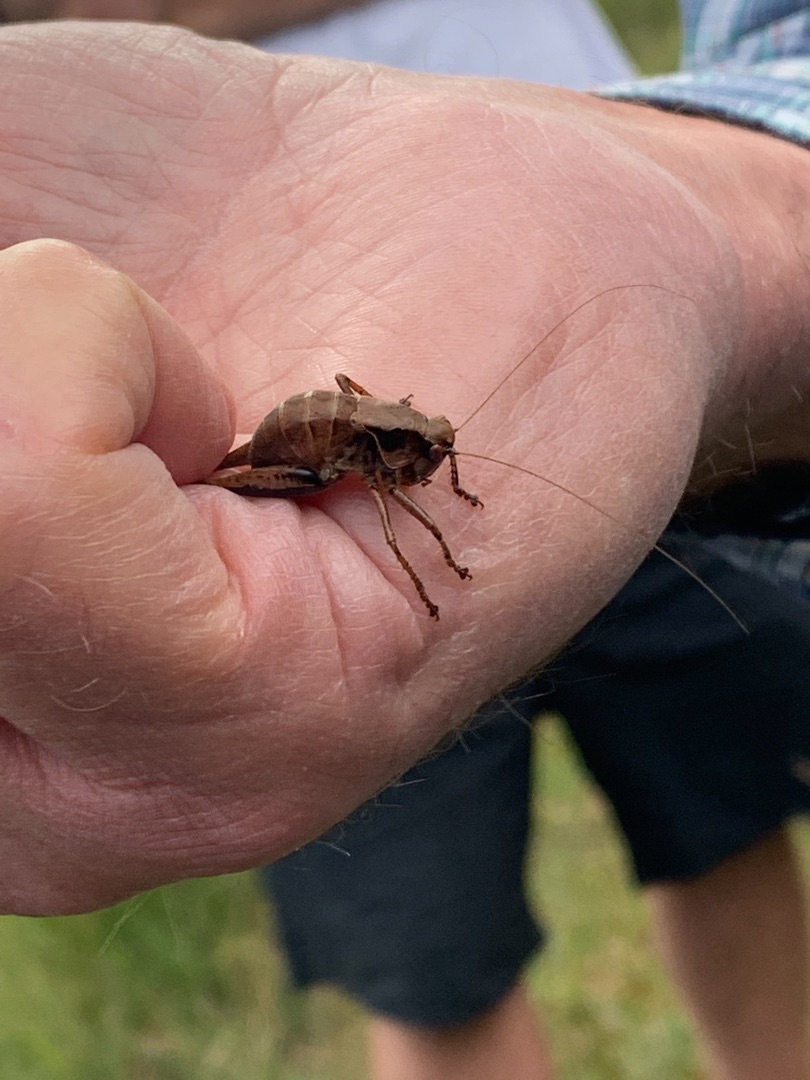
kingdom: Animalia
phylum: Arthropoda
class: Insecta
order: Orthoptera
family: Tettigoniidae
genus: Pholidoptera
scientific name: Pholidoptera griseoaptera
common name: Buskgræshoppe
